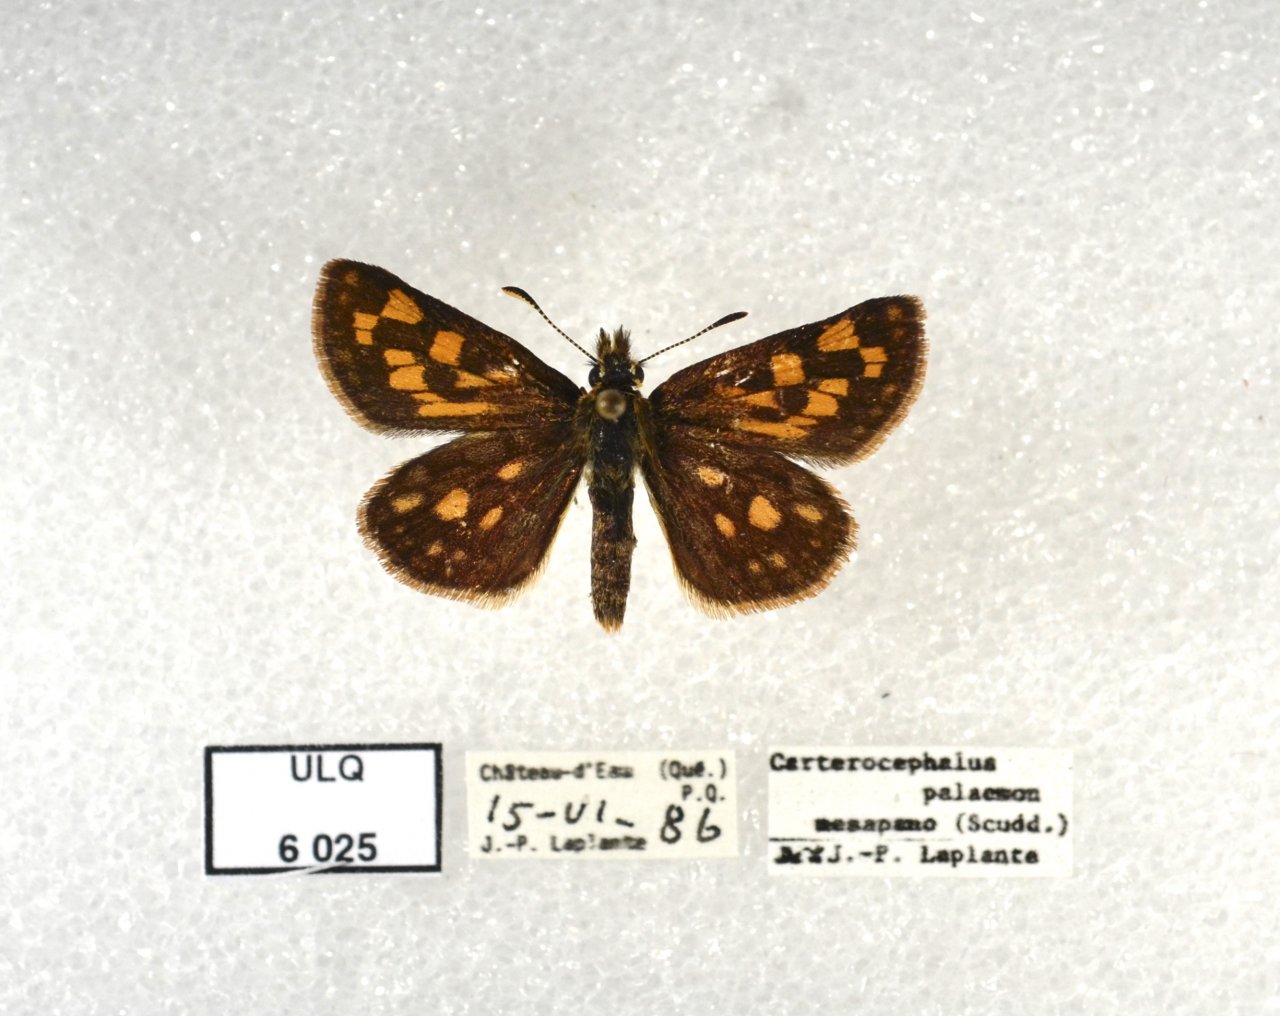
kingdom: Animalia
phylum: Arthropoda
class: Insecta
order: Lepidoptera
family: Hesperiidae
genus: Carterocephalus
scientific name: Carterocephalus palaemon
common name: Chequered Skipper
